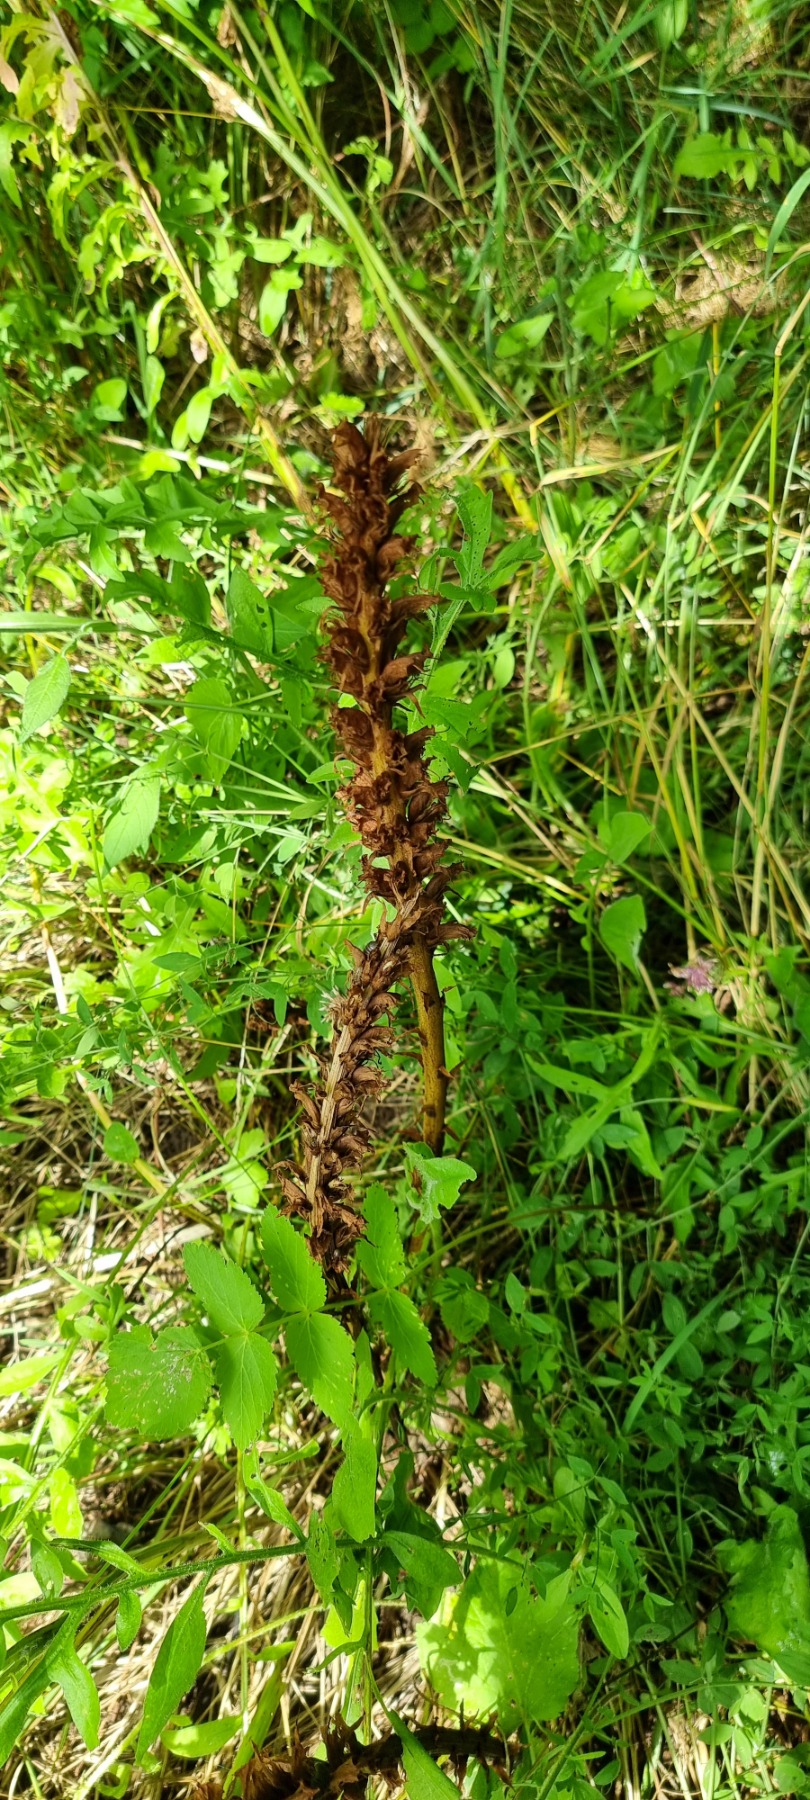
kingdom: Plantae
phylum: Tracheophyta
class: Magnoliopsida
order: Lamiales
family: Orobanchaceae
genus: Orobanche
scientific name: Orobanche elatior
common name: Stor gyvelkvæler
